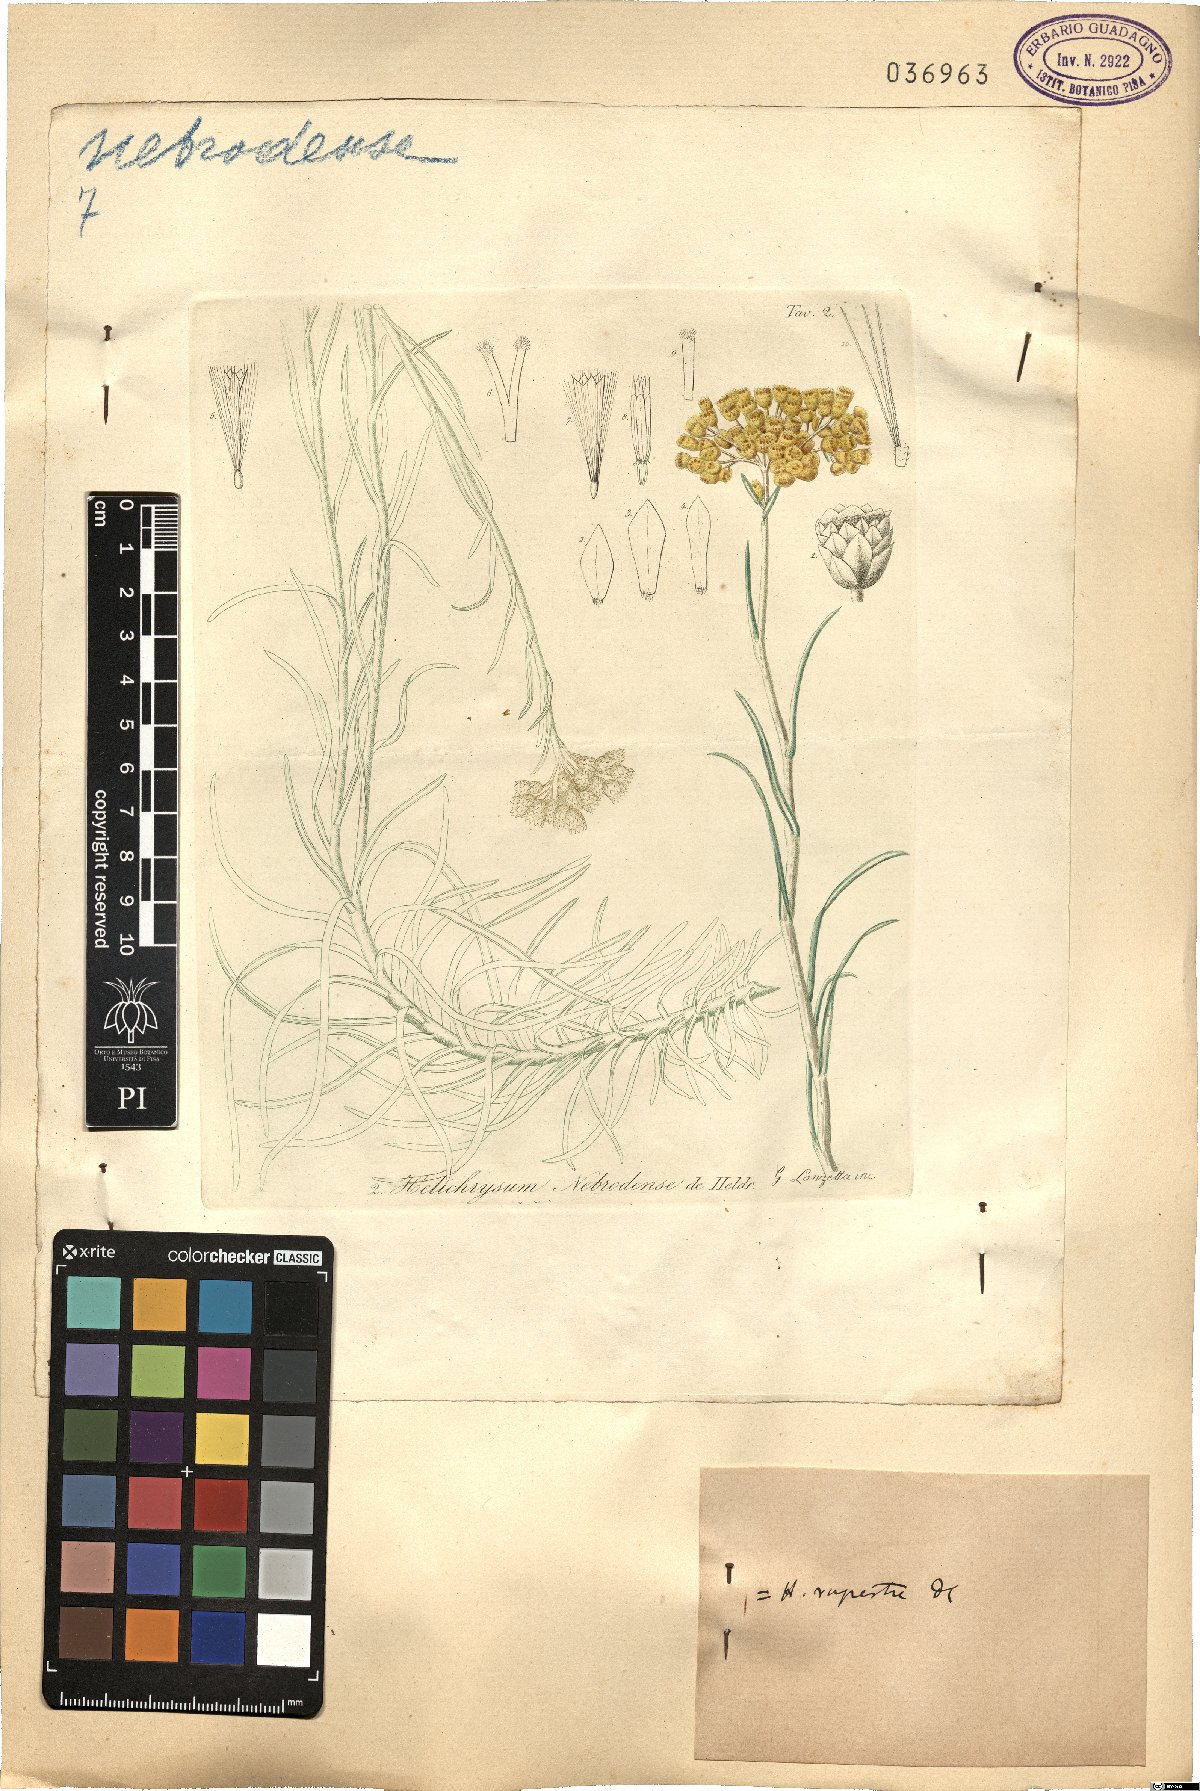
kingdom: Plantae
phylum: Tracheophyta
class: Magnoliopsida
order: Asterales
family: Asteraceae
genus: Helichrysum
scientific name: Helichrysum pendulum
